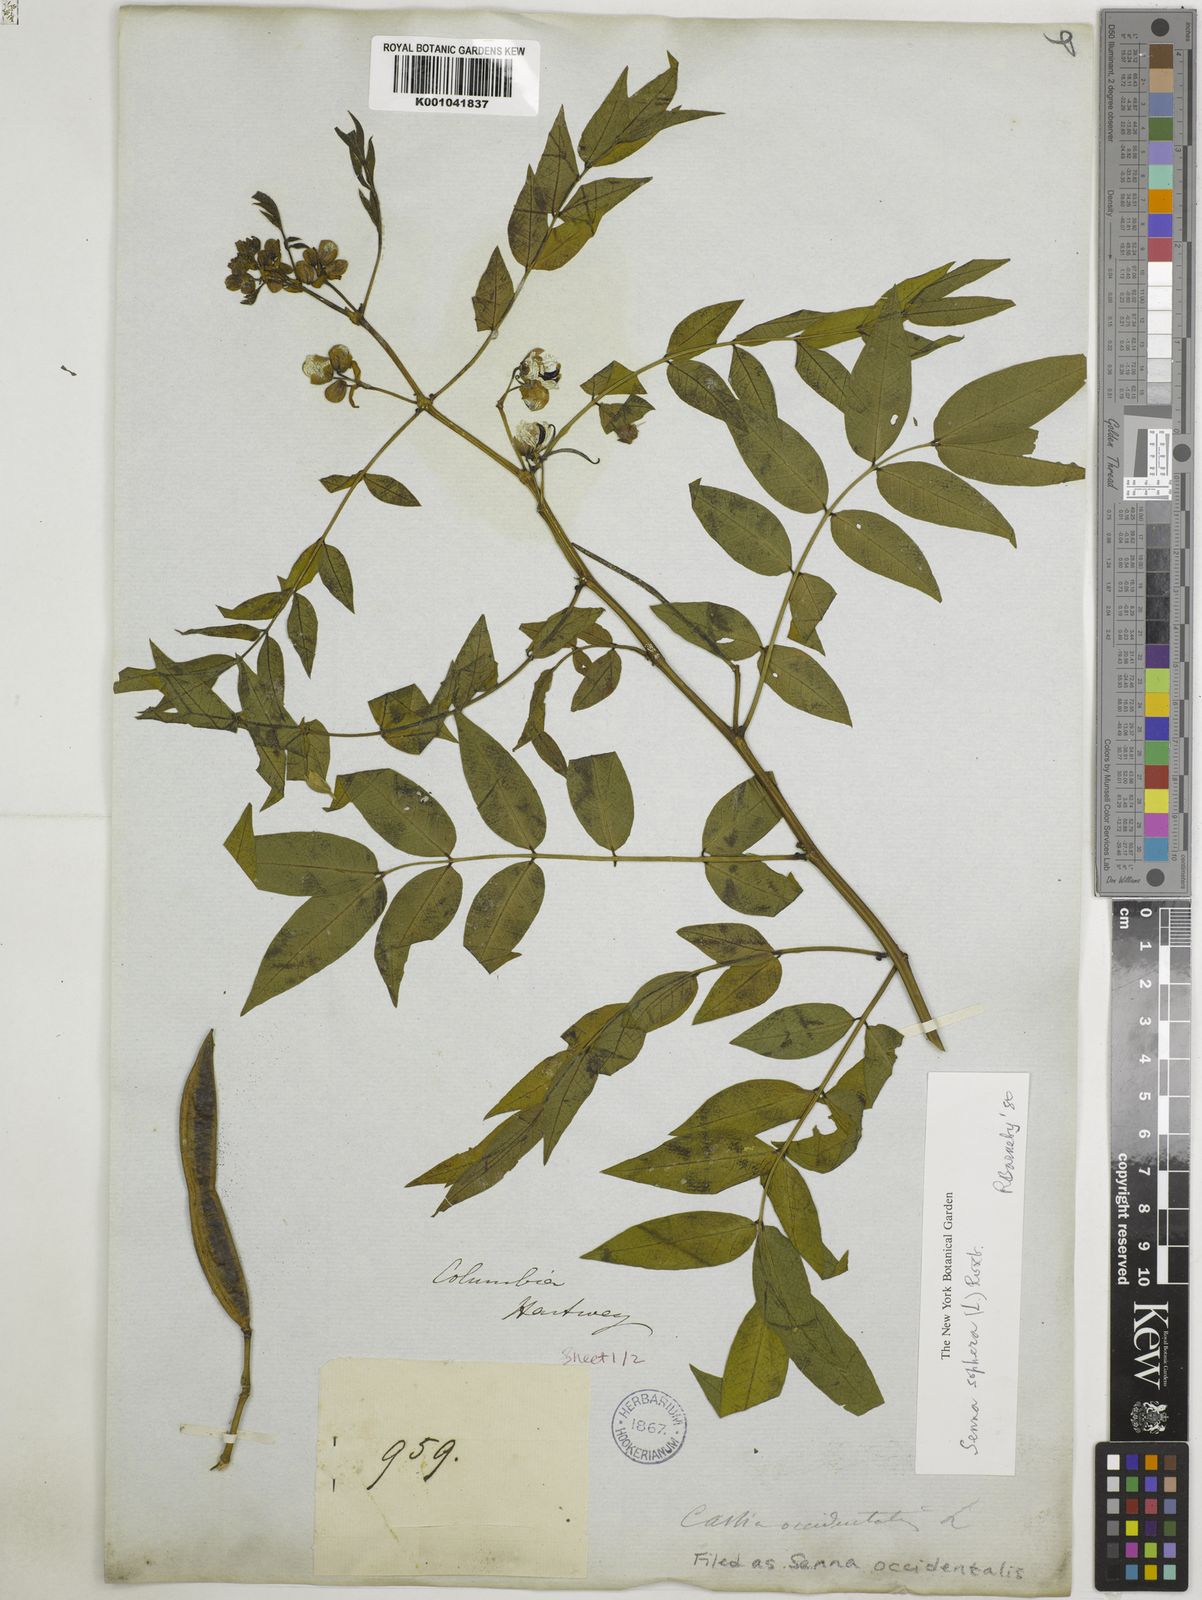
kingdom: Plantae
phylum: Tracheophyta
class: Magnoliopsida
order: Fabales
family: Fabaceae
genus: Senna
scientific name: Senna occidentalis
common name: Septicweed
